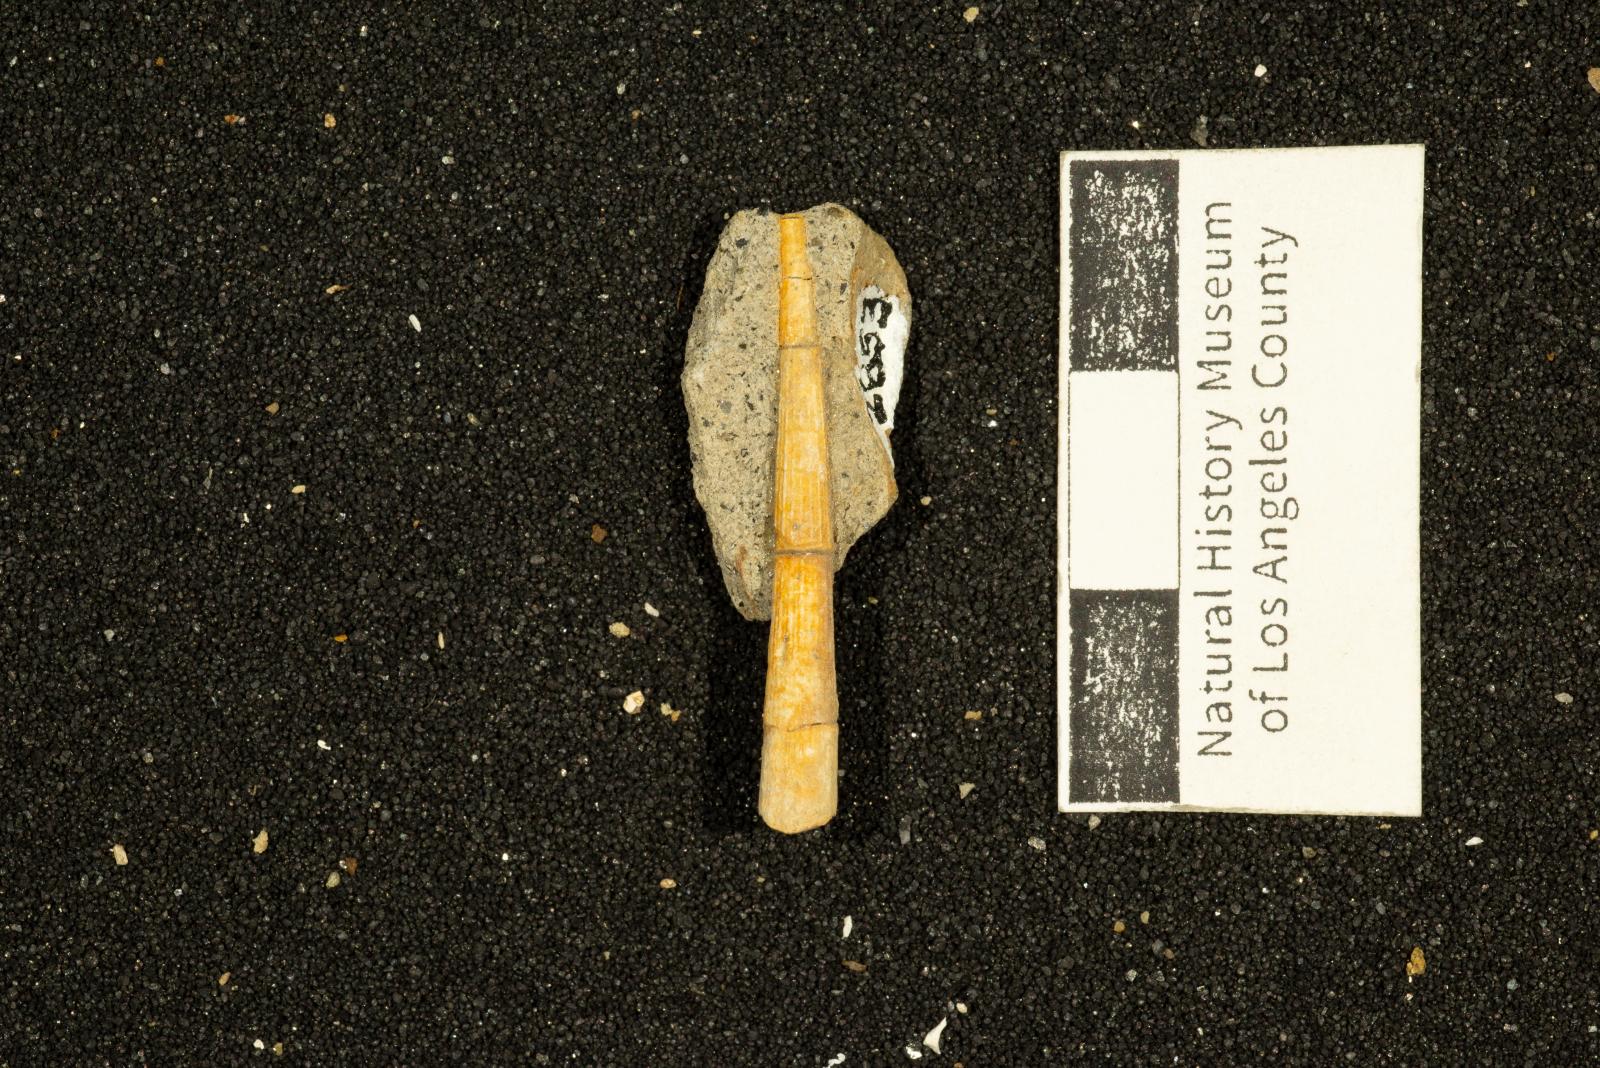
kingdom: Animalia
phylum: Mollusca
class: Scaphopoda
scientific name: Scaphopoda
